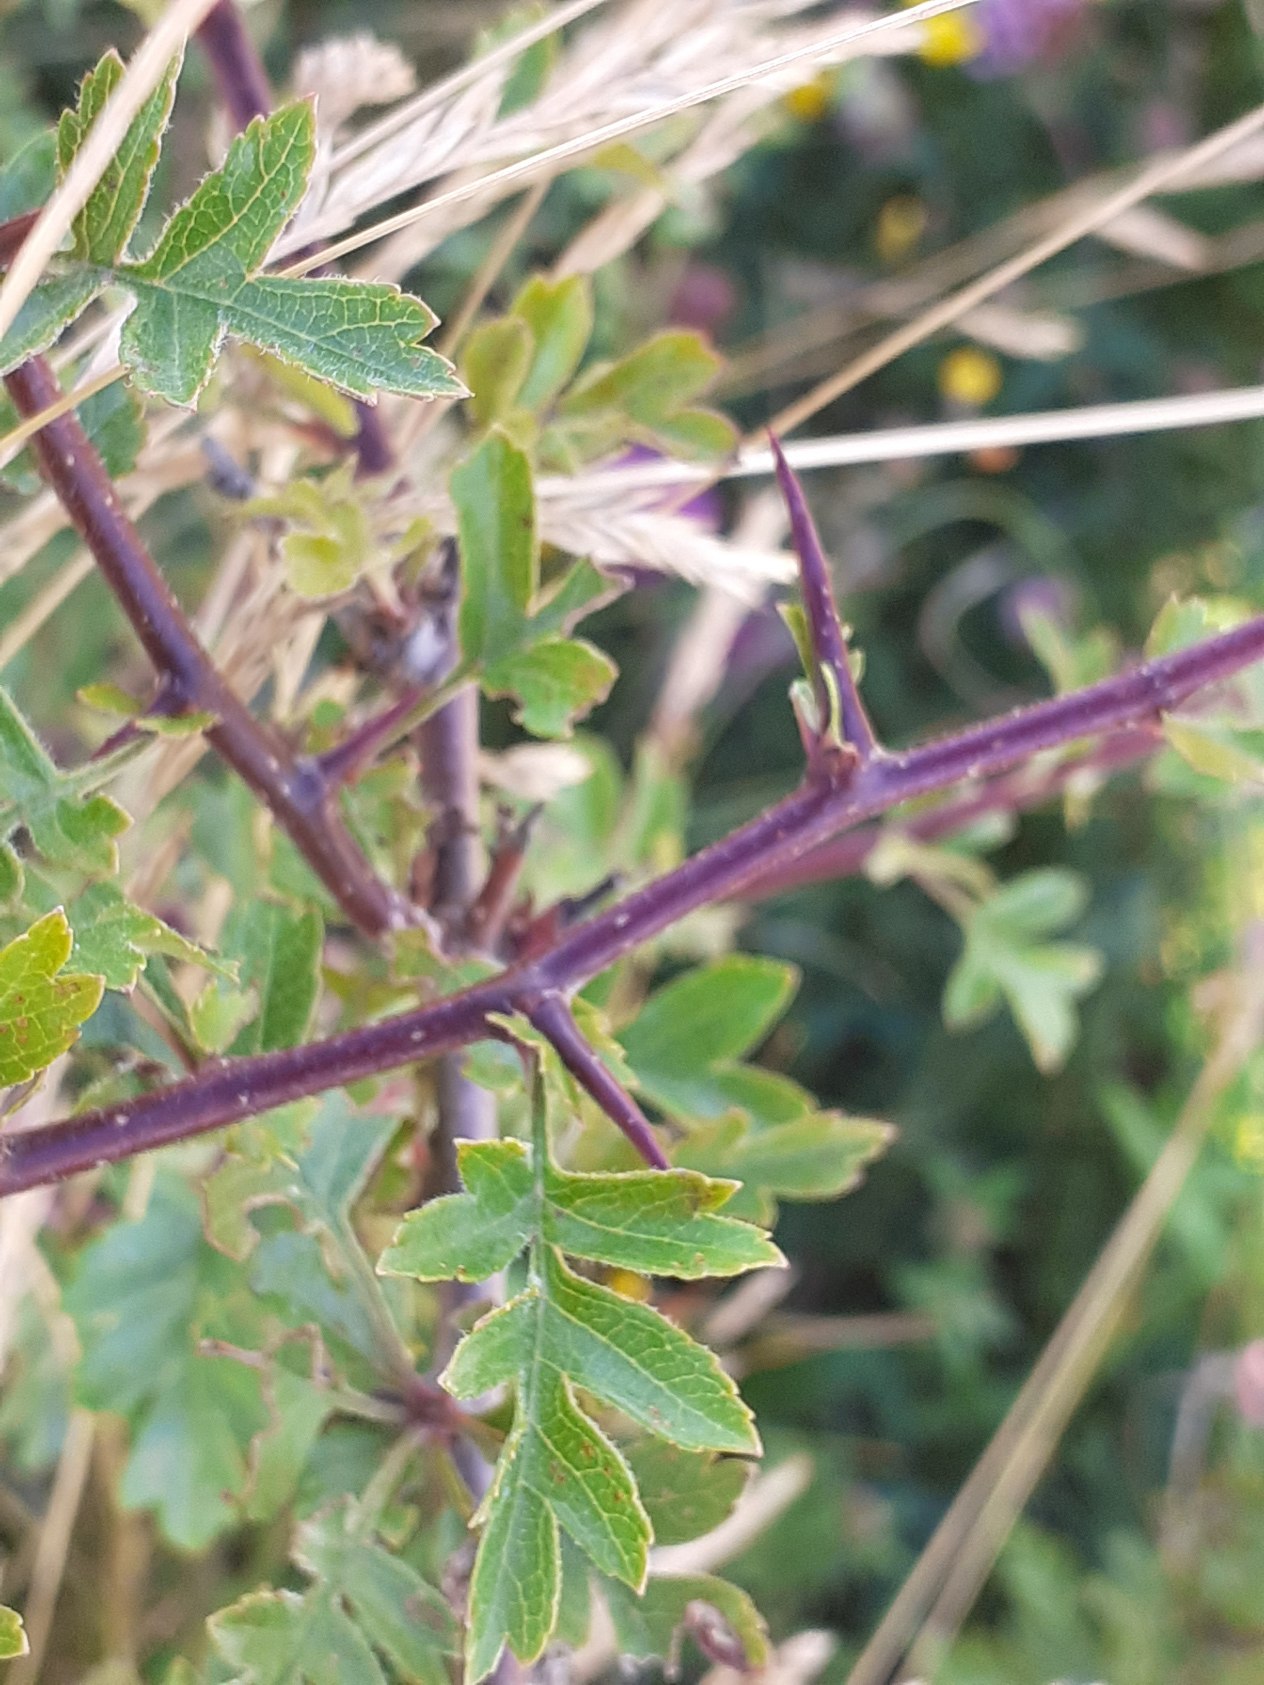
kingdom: Plantae
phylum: Tracheophyta
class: Magnoliopsida
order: Rosales
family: Rosaceae
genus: Crataegus
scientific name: Crataegus monogyna
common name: Engriflet hvidtjørn
